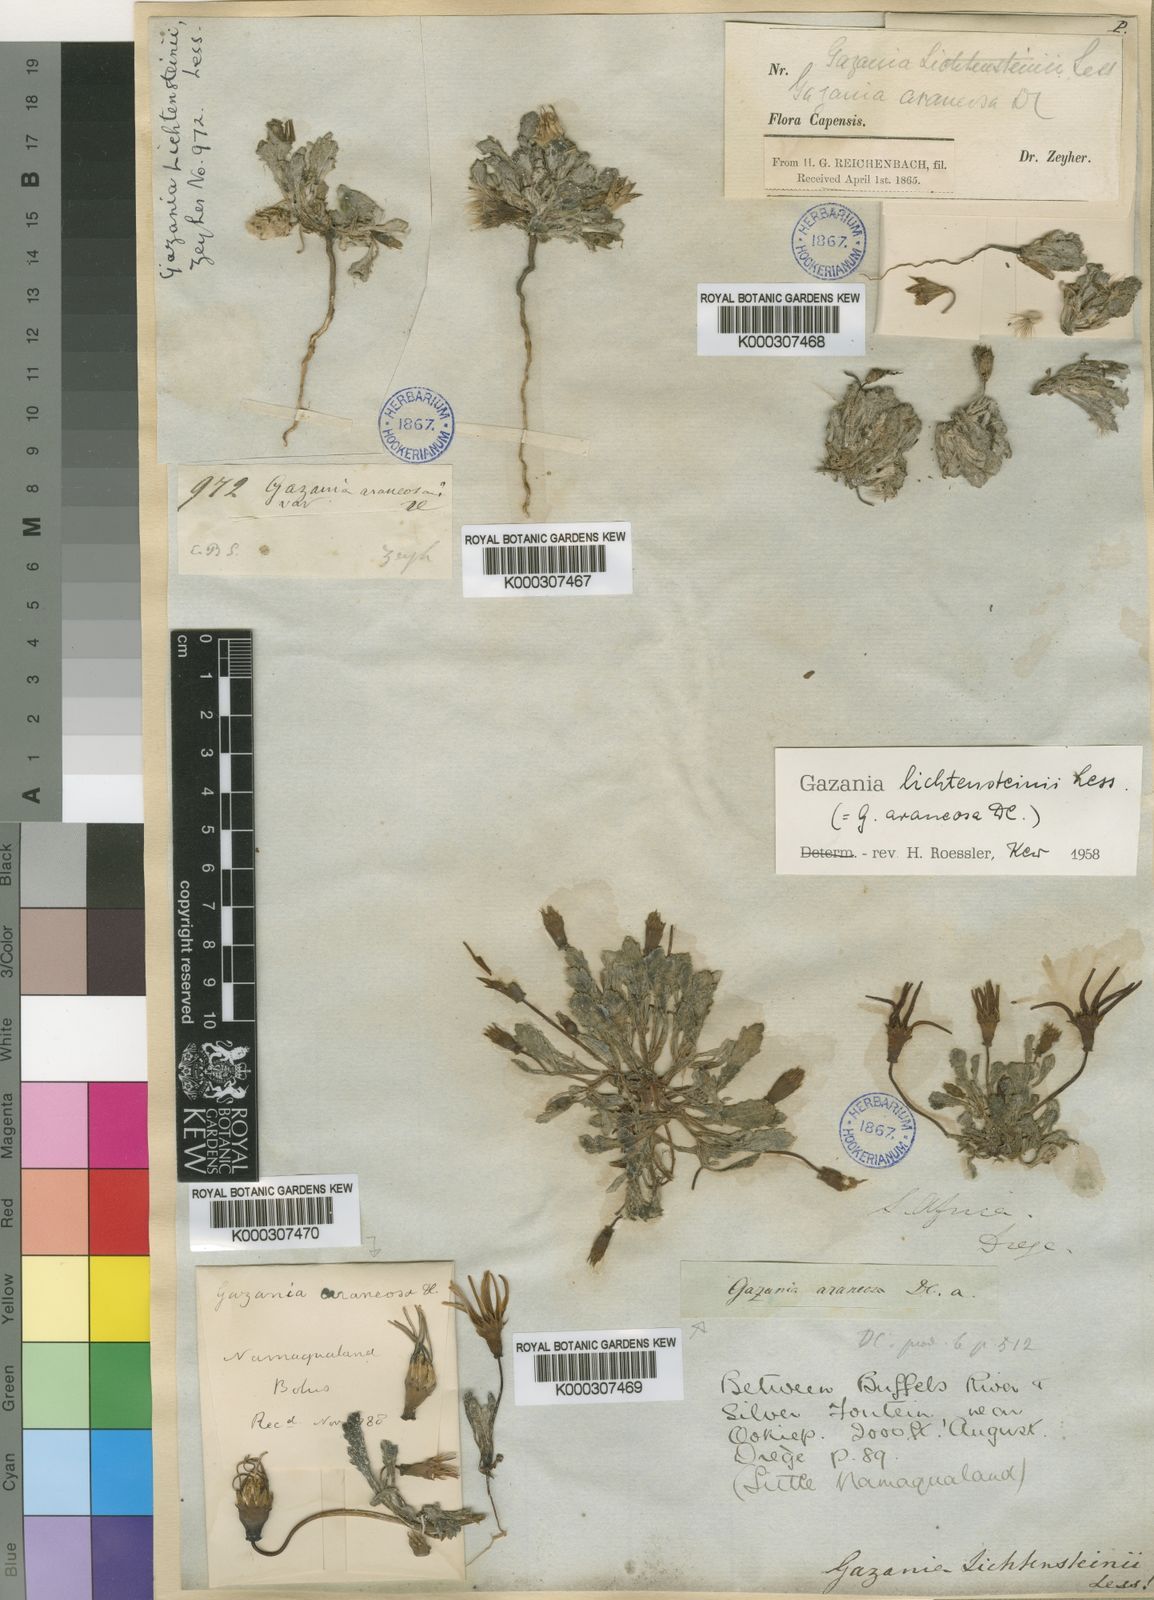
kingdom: Plantae
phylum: Tracheophyta
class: Magnoliopsida
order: Asterales
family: Asteraceae
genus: Gazania
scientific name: Gazania lichtensteinii
